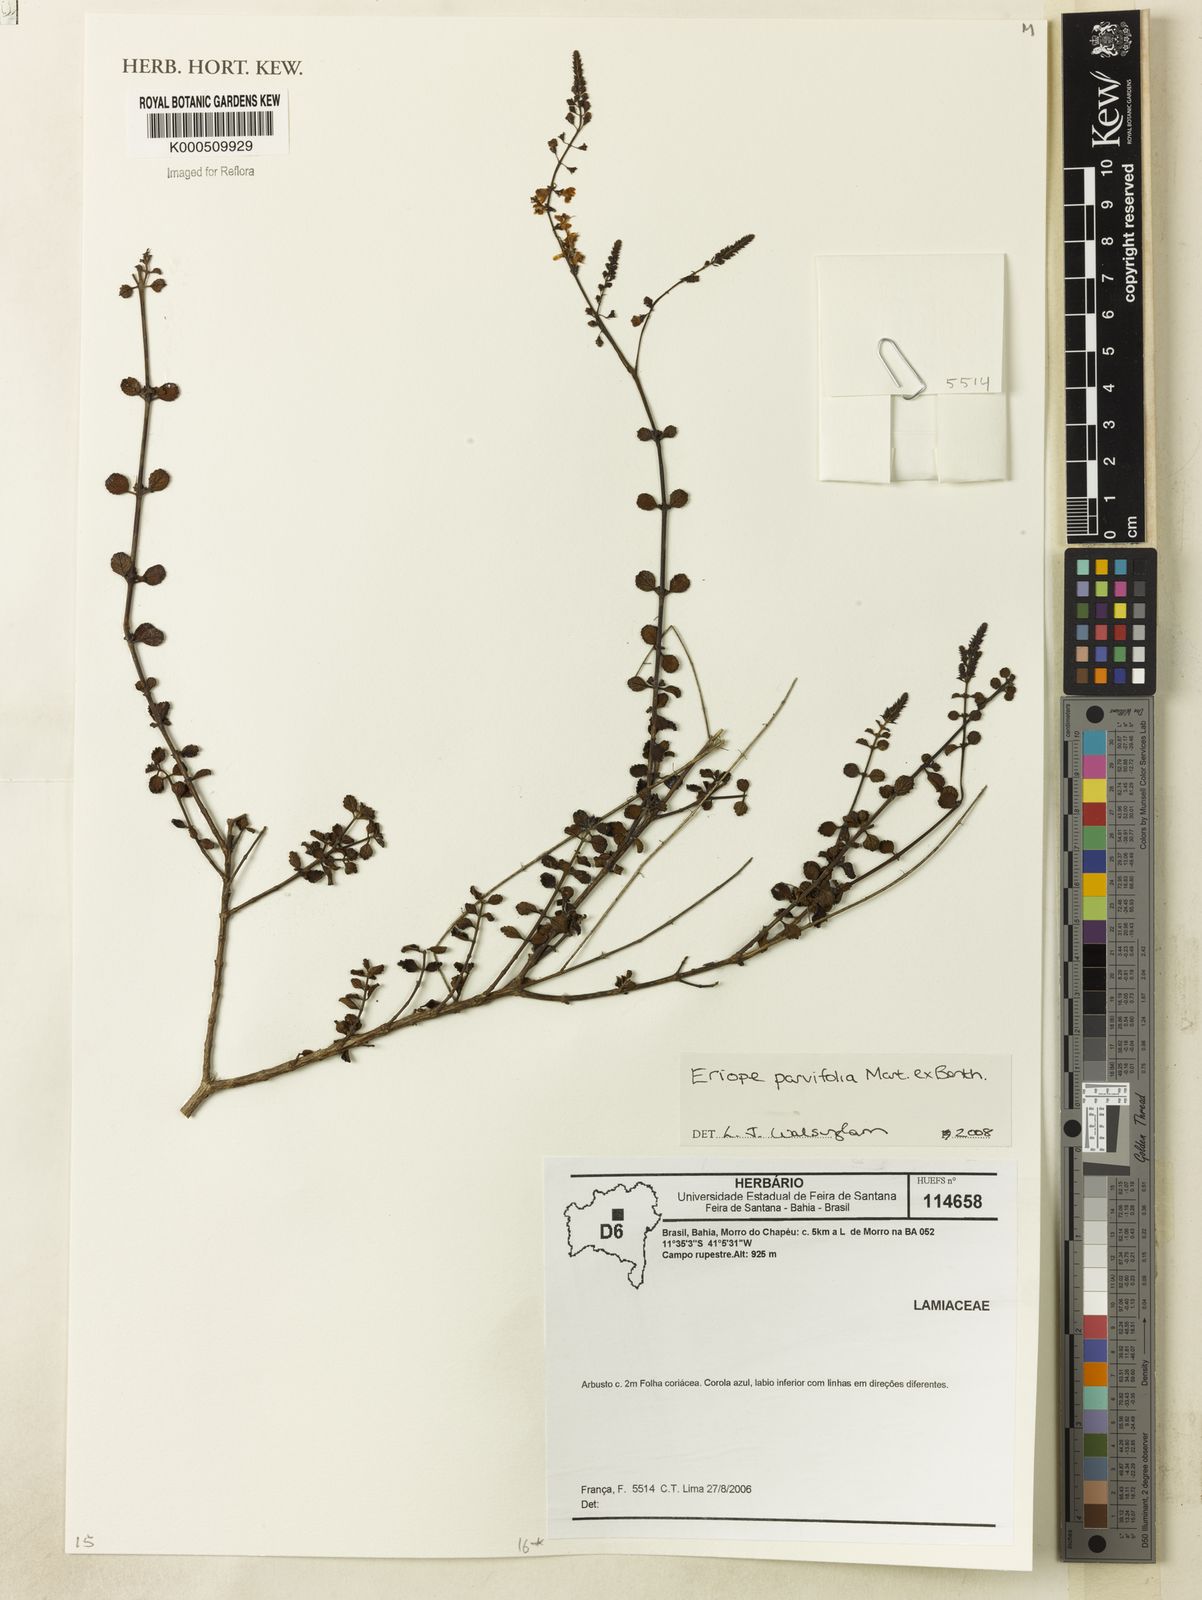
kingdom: Plantae
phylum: Tracheophyta
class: Magnoliopsida
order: Lamiales
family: Lamiaceae
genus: Eriope
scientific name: Eriope parvifolia
